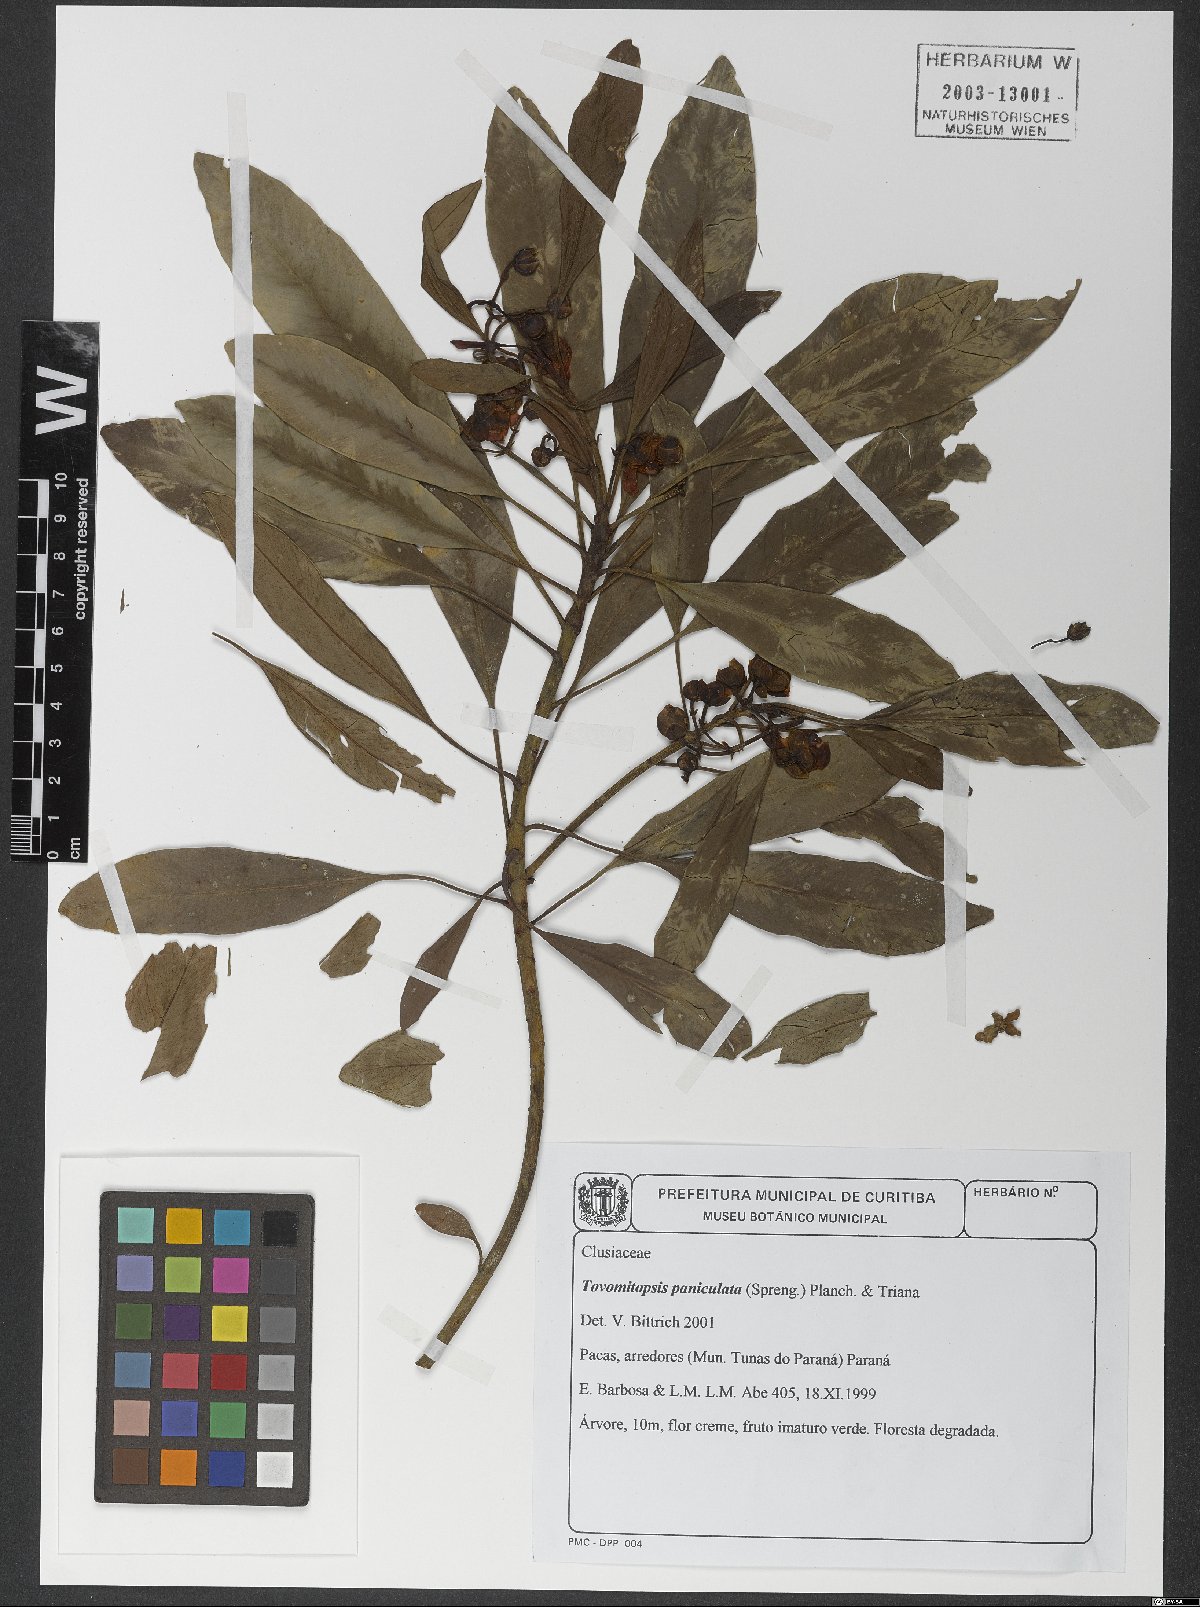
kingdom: Plantae
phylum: Tracheophyta
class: Magnoliopsida
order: Malpighiales
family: Clusiaceae
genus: Chrysochlamys
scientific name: Chrysochlamys paniculata
